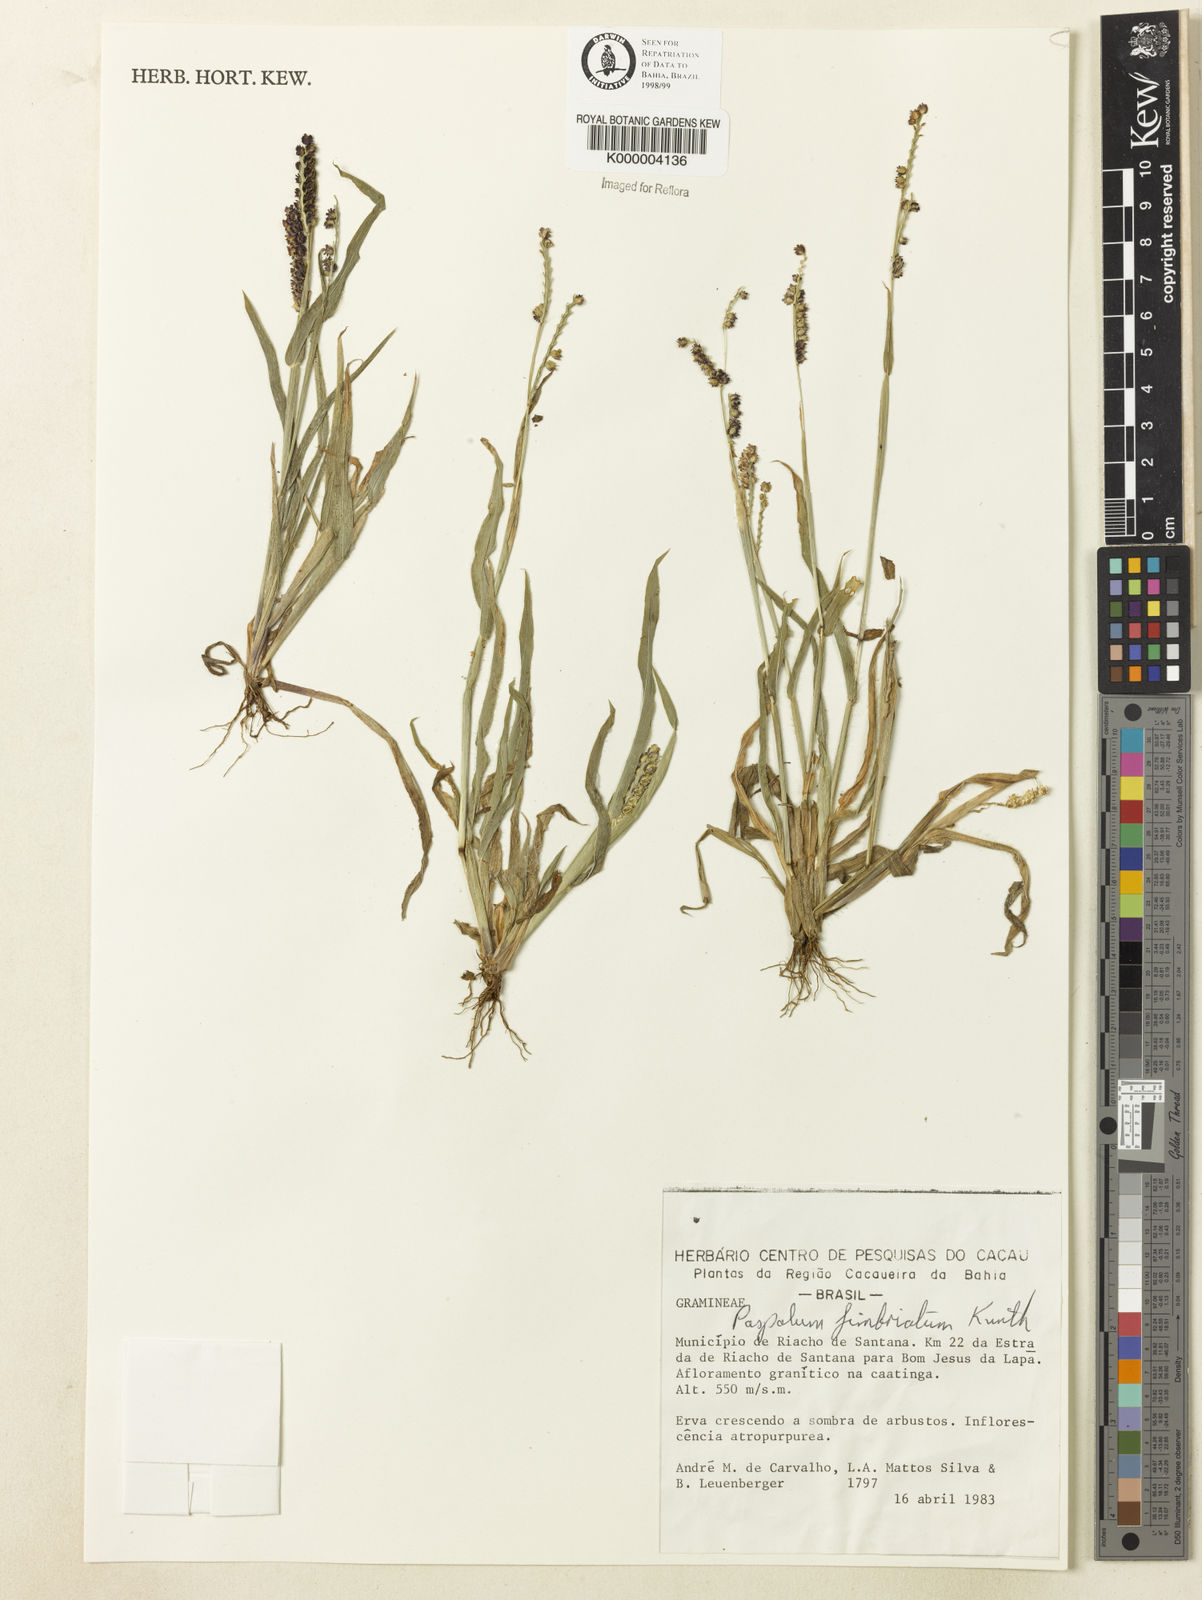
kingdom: Plantae
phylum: Tracheophyta
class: Liliopsida
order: Poales
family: Poaceae
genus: Paspalum
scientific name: Paspalum fimbriatum
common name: Panama crowngrass
